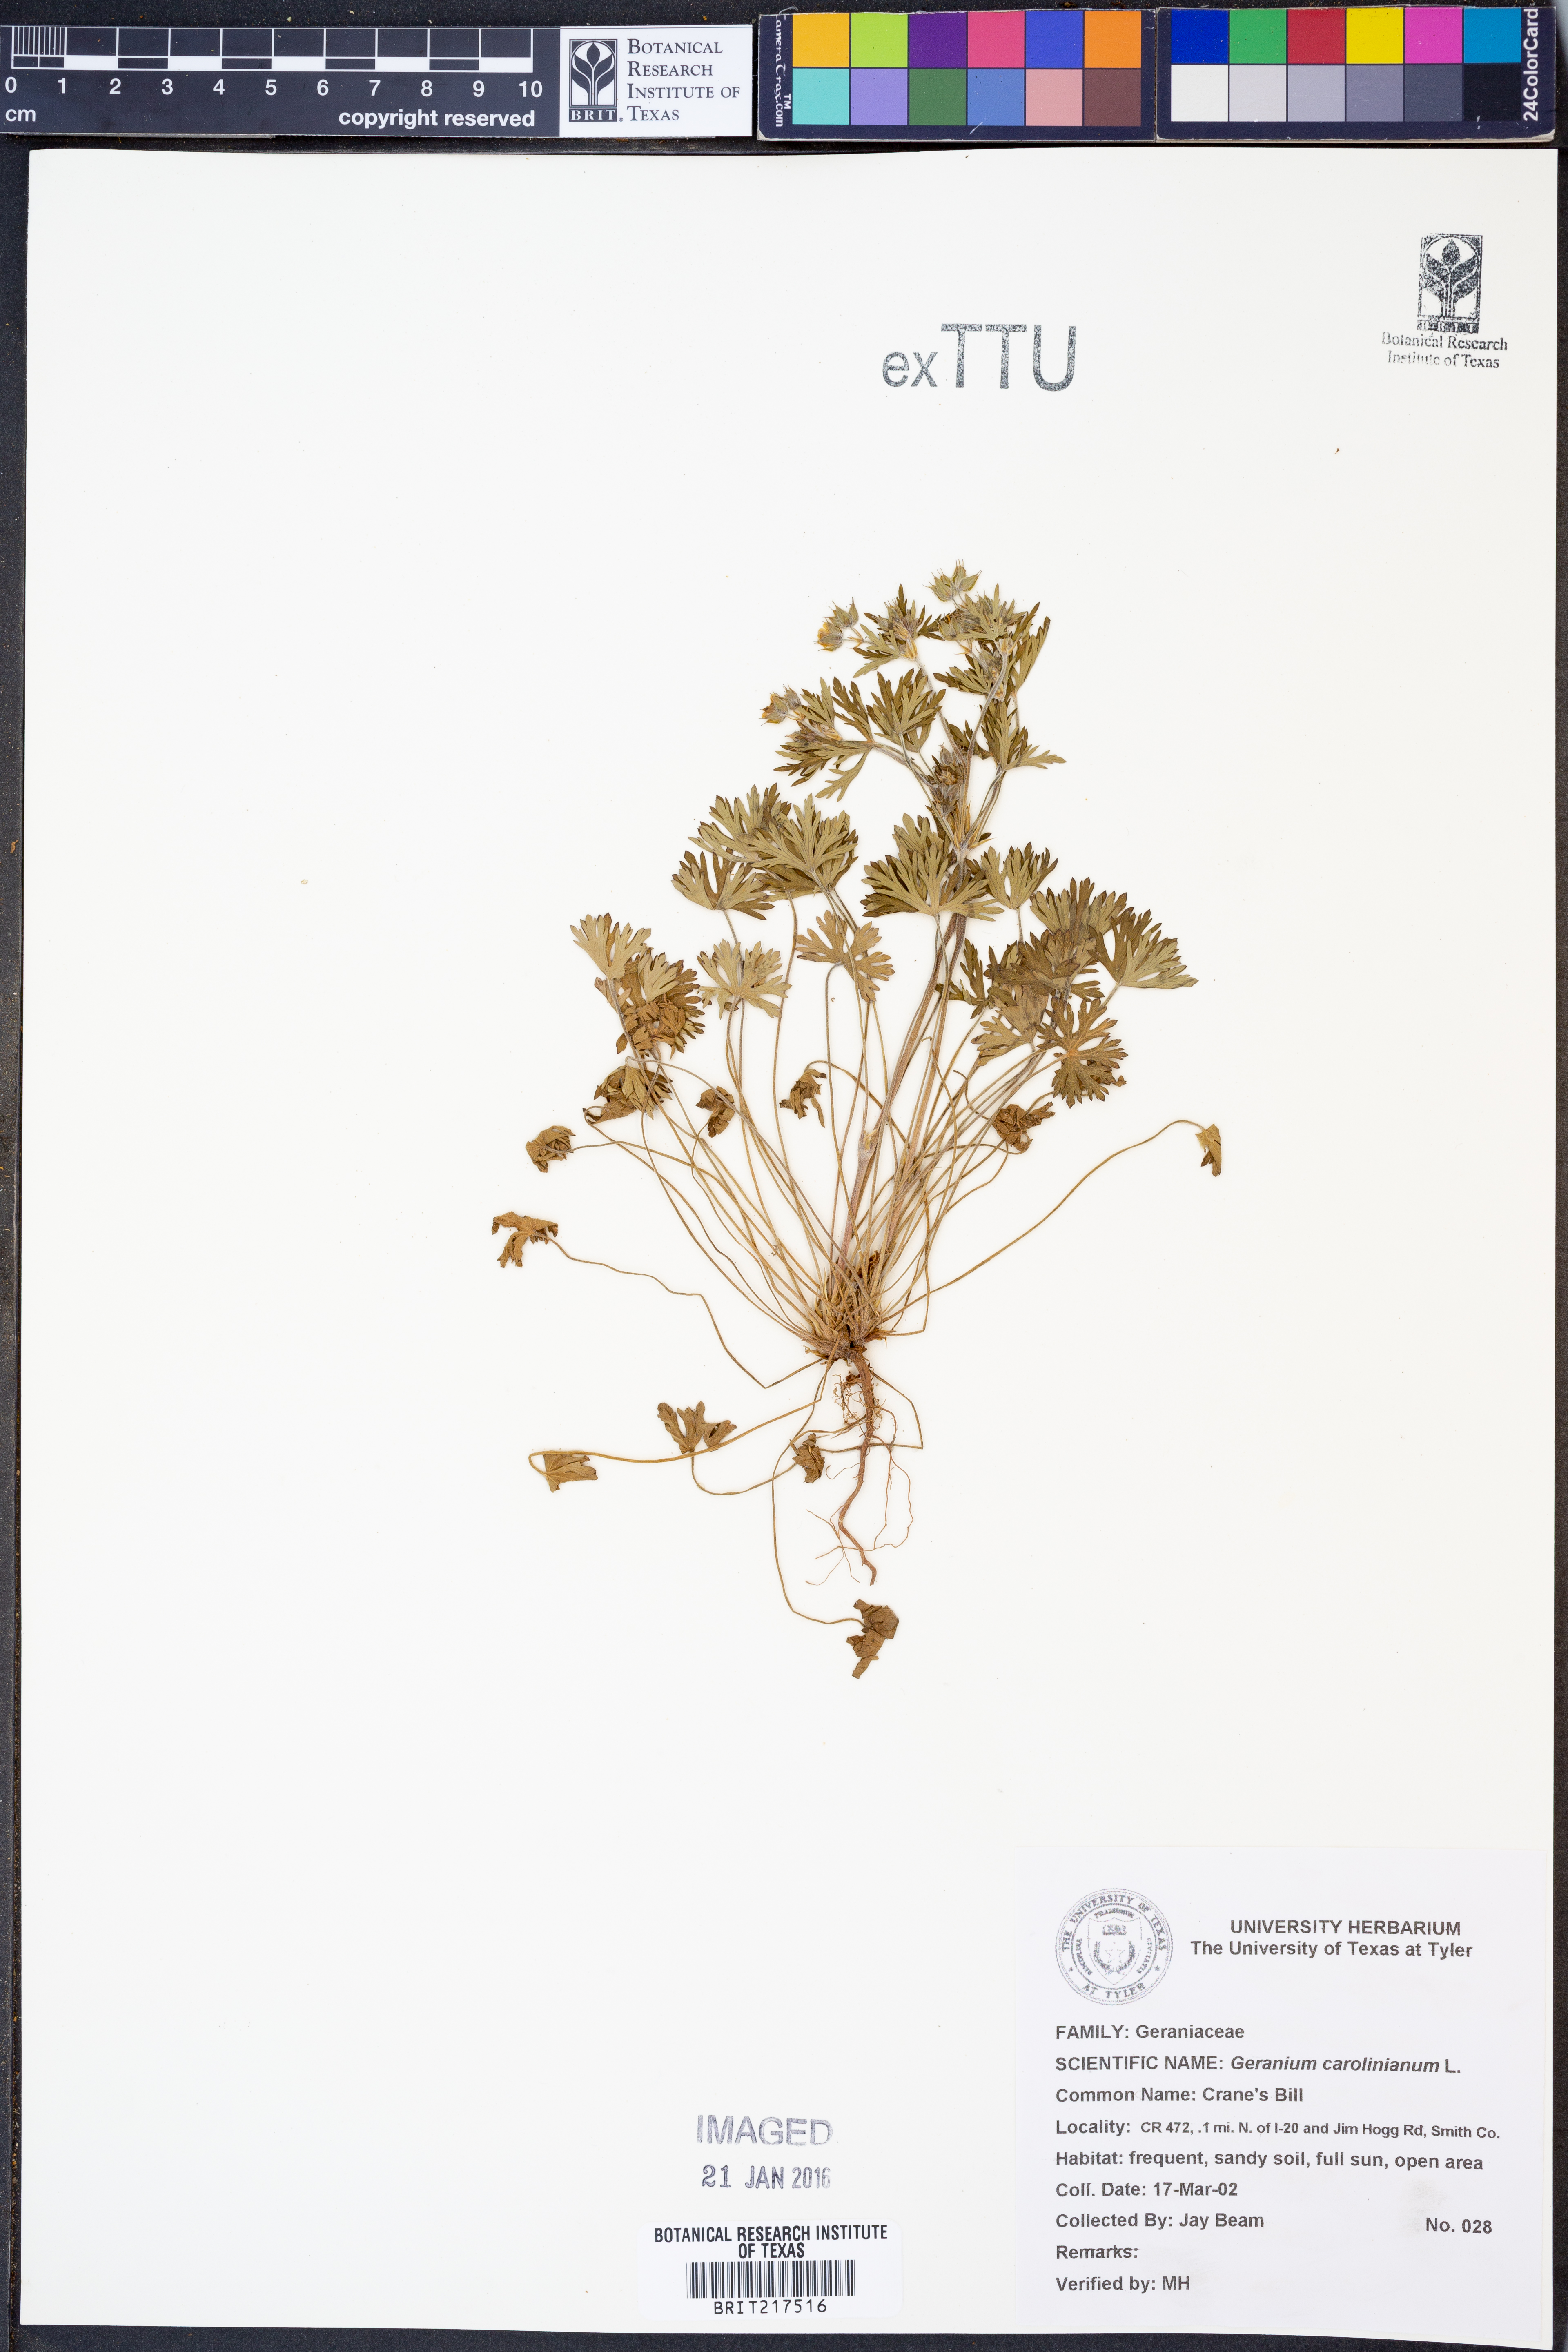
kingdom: Plantae
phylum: Tracheophyta
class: Magnoliopsida
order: Geraniales
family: Geraniaceae
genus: Geranium
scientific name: Geranium carolinianum
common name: Carolina crane's-bill
